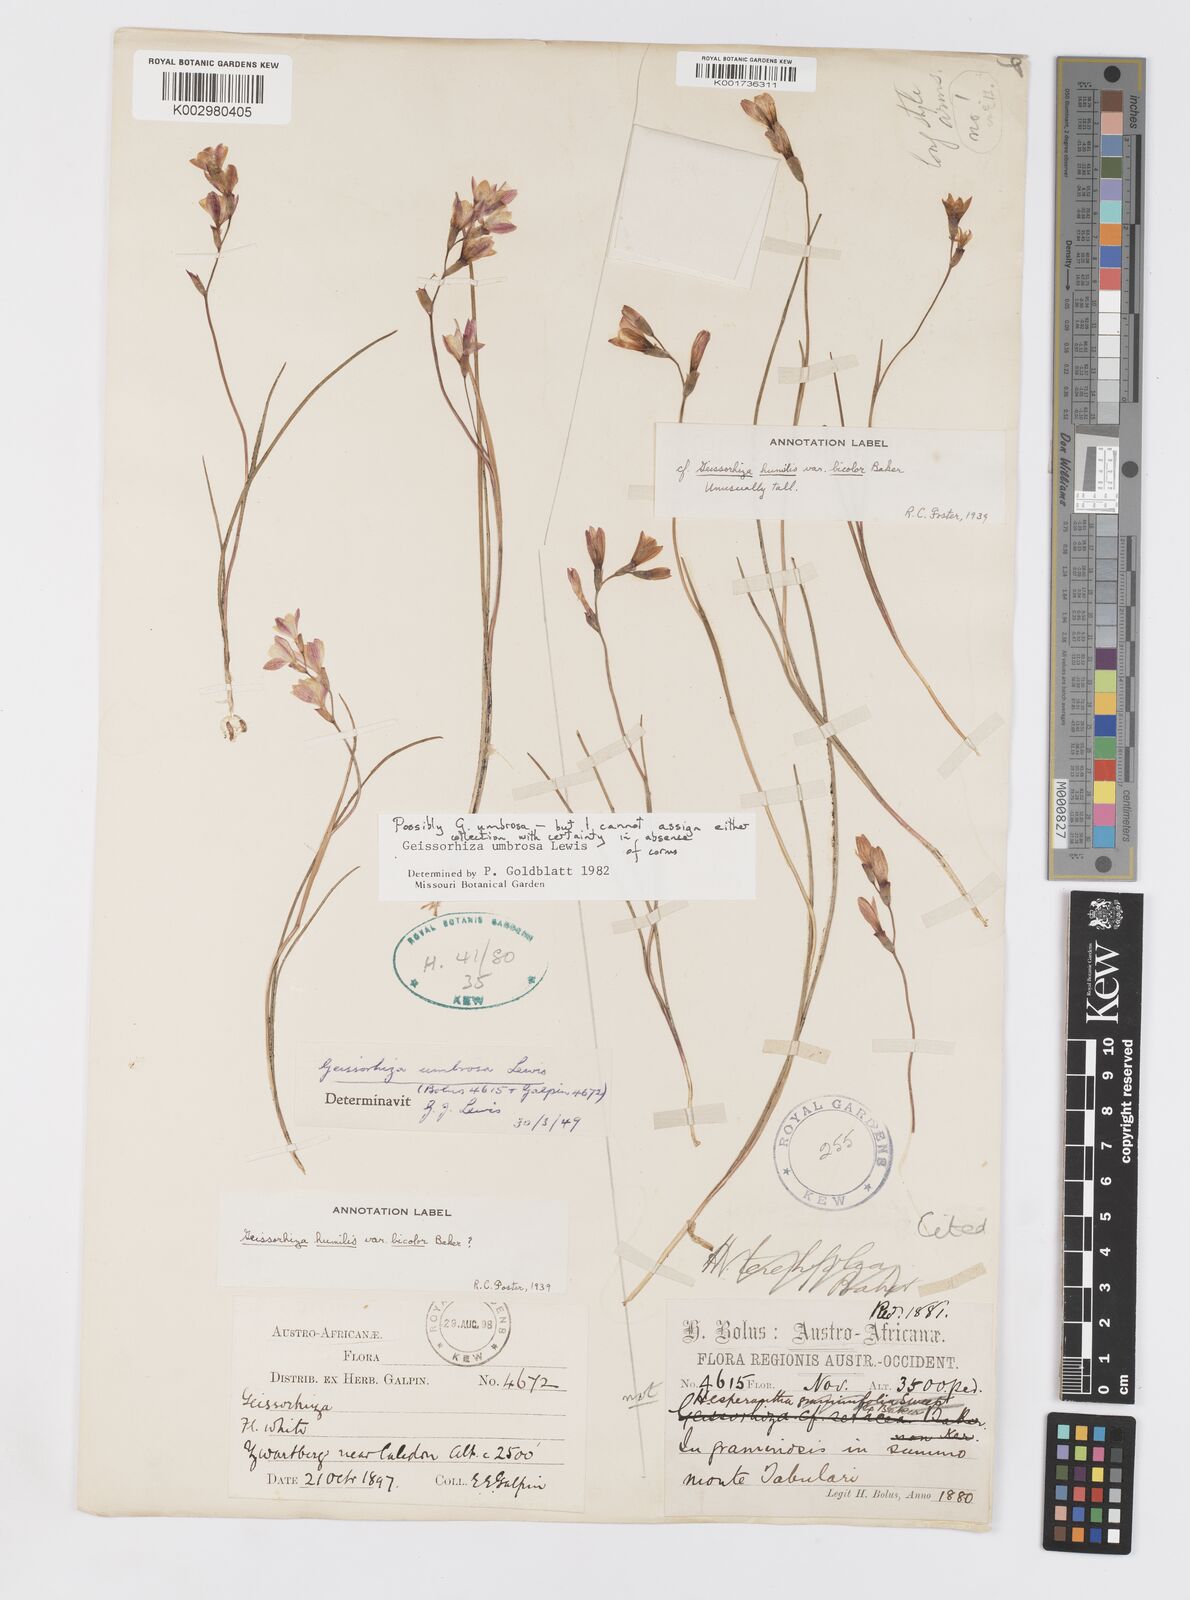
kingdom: Plantae
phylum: Tracheophyta
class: Liliopsida
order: Asparagales
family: Iridaceae
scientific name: Iridaceae
